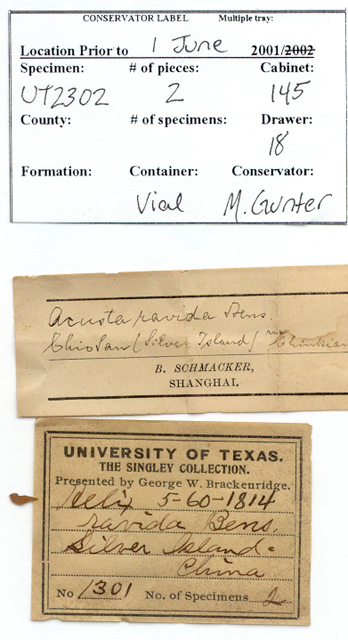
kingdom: Animalia
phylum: Mollusca
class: Gastropoda
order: Stylommatophora
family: Camaenidae
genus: Acusta
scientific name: Acusta ravida
